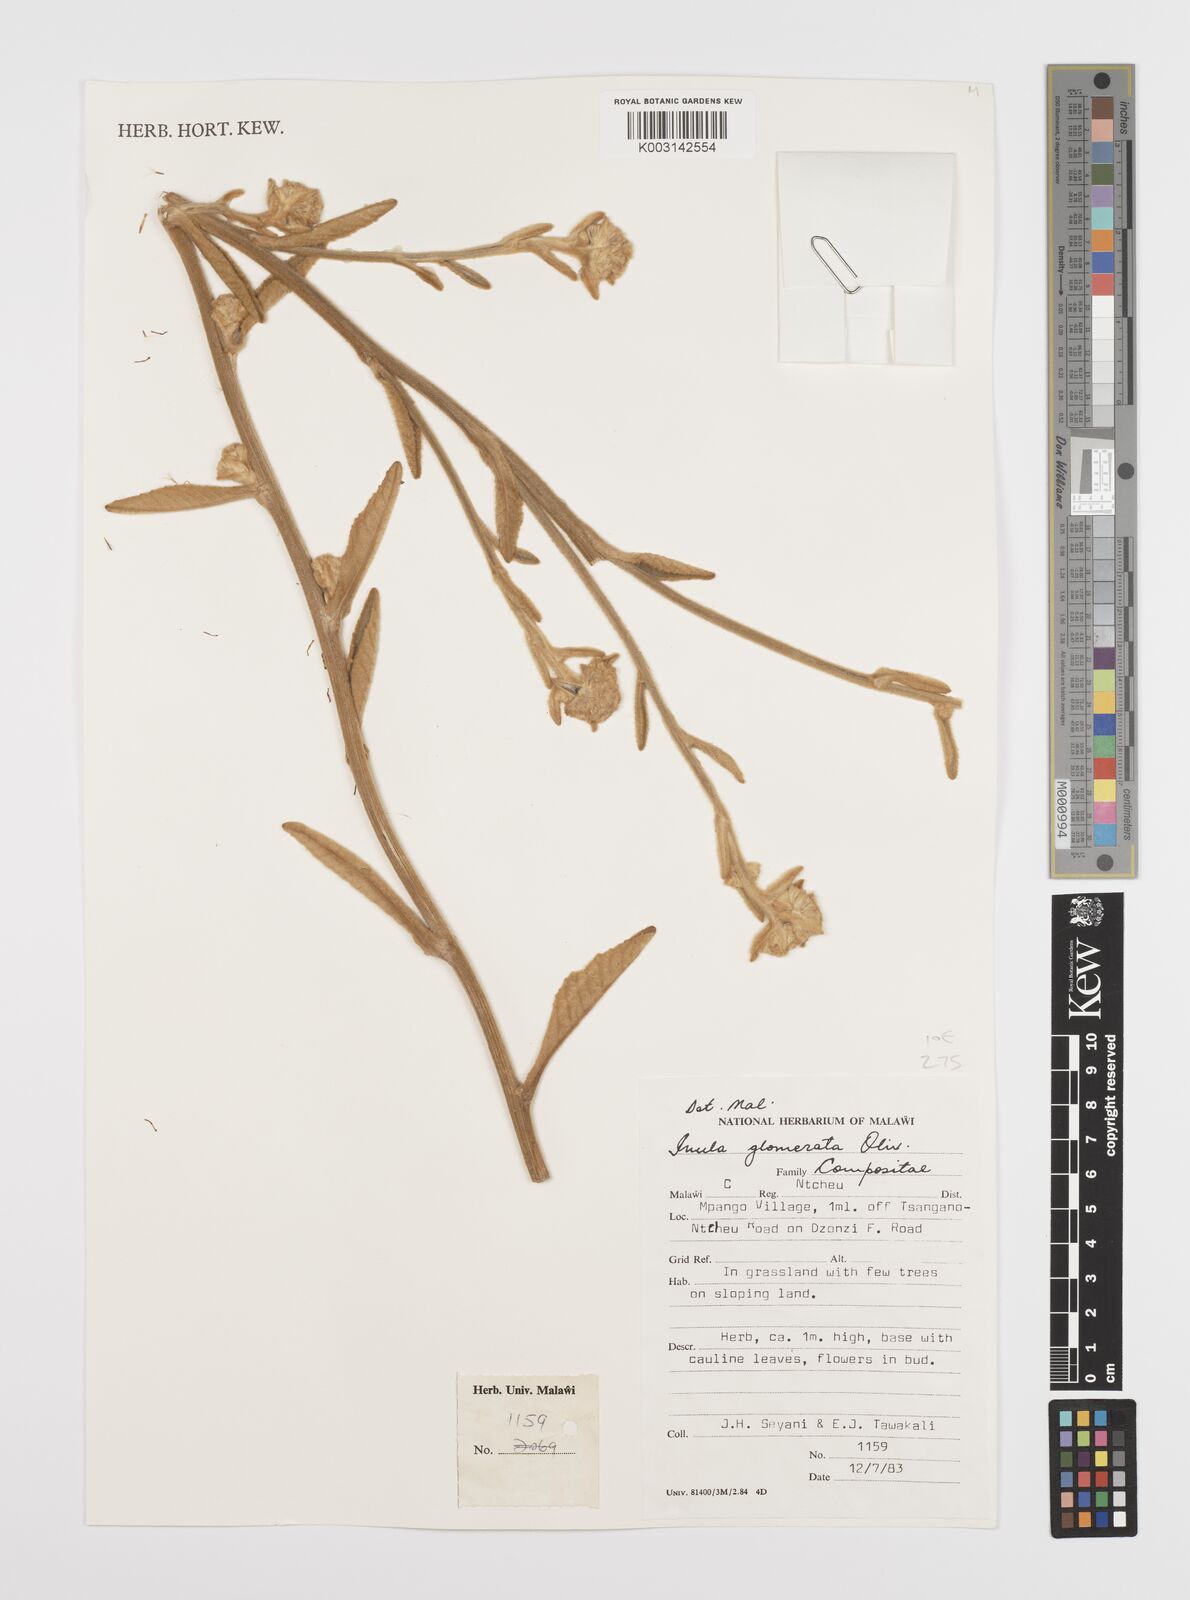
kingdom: Plantae
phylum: Tracheophyta
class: Magnoliopsida
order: Asterales
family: Asteraceae
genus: Inula
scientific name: Inula glomerata
